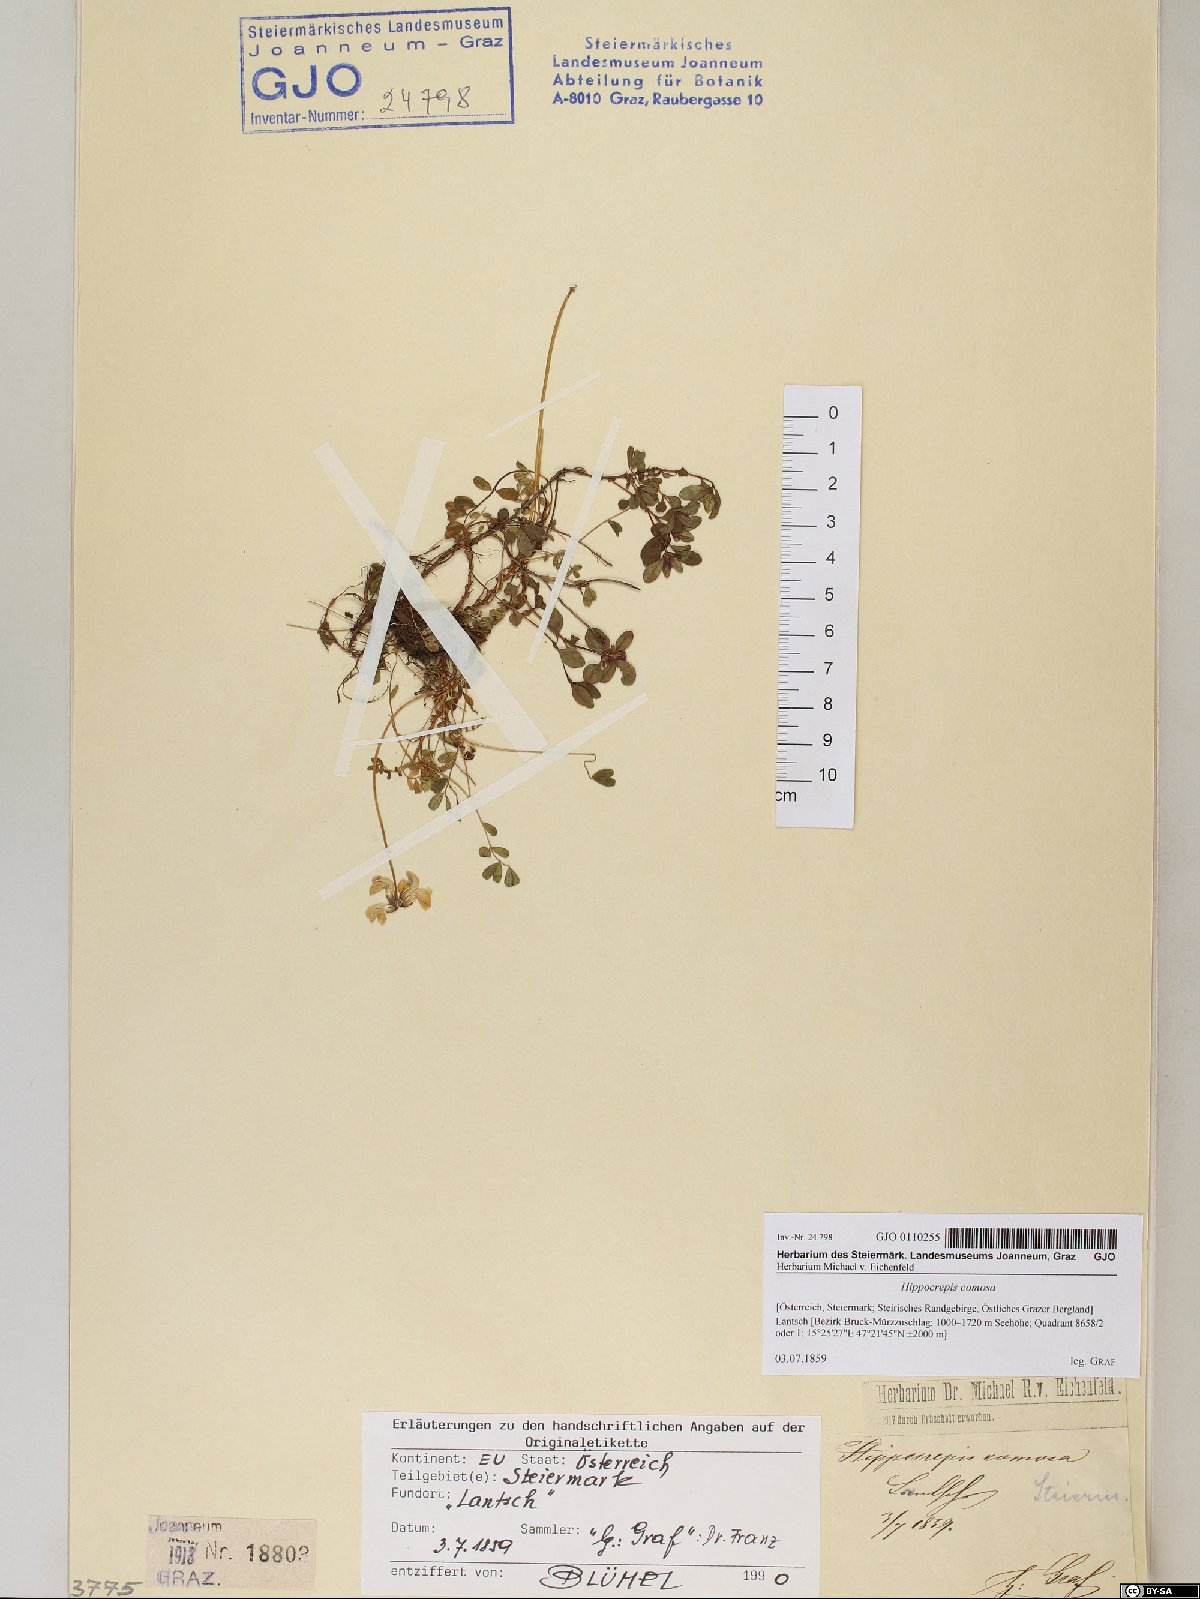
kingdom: Plantae
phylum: Tracheophyta
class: Magnoliopsida
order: Fabales
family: Fabaceae
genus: Hippocrepis
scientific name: Hippocrepis comosa
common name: Horseshoe vetch
